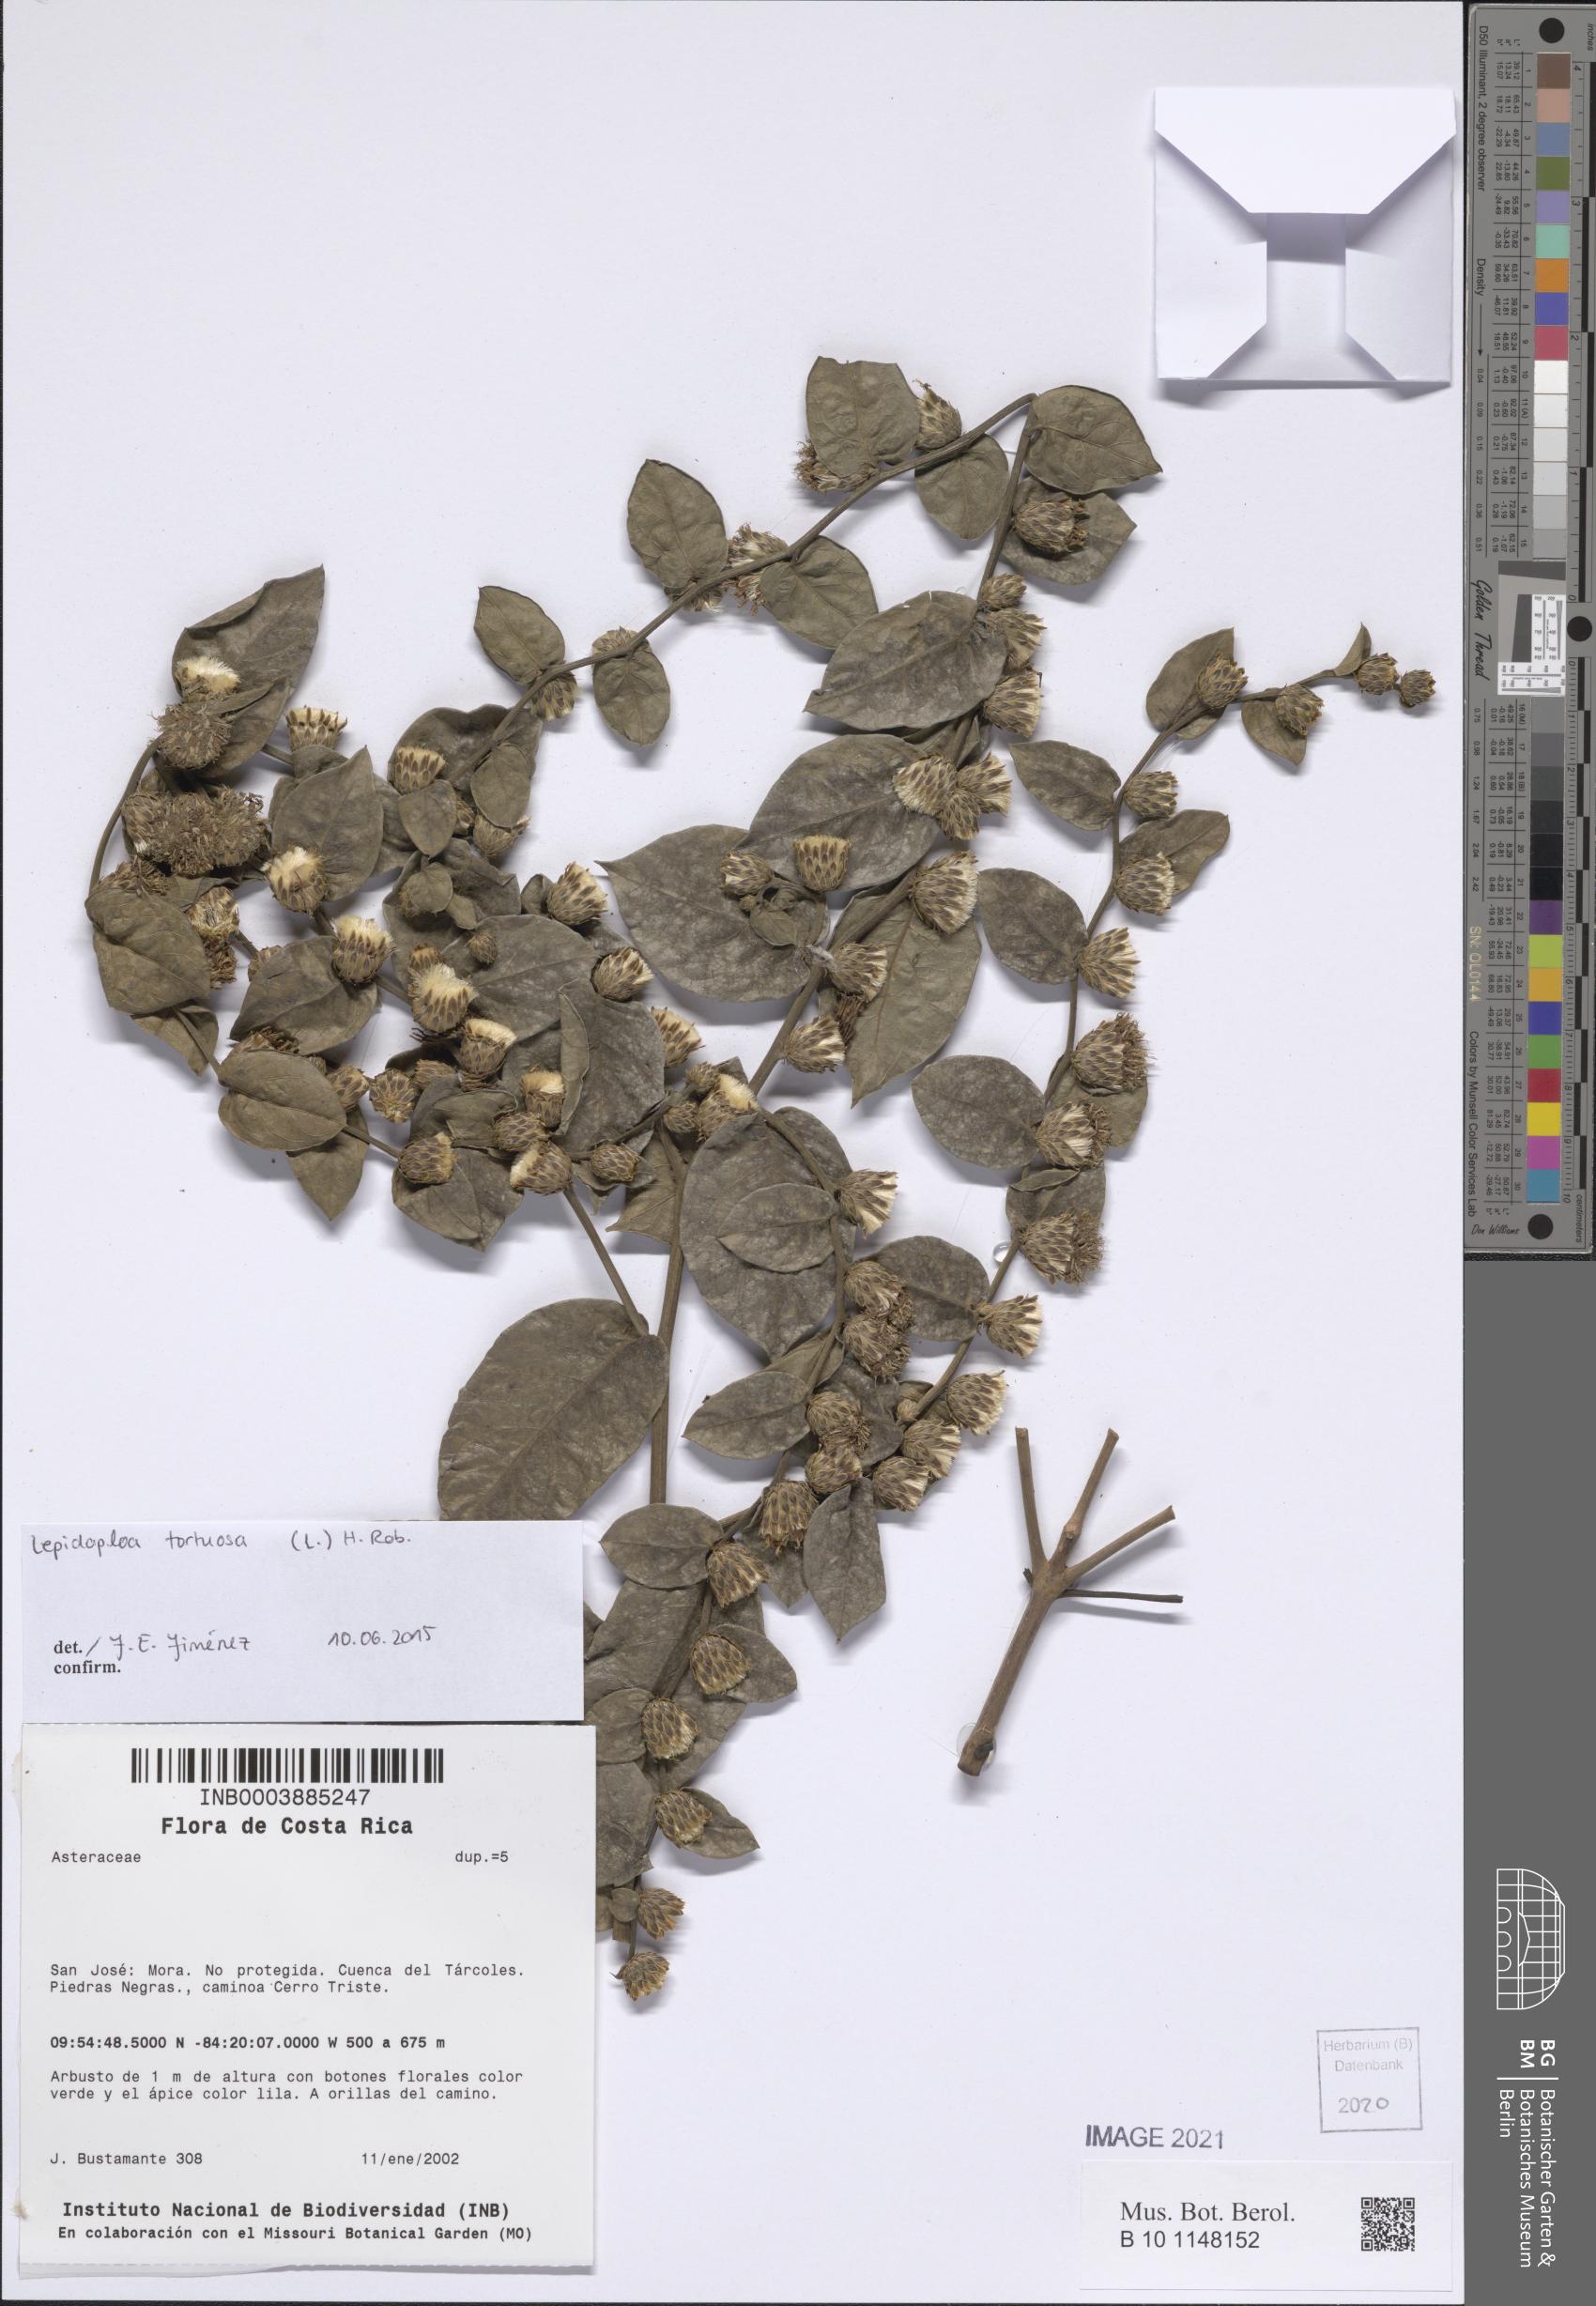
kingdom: Plantae
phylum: Tracheophyta
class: Magnoliopsida
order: Asterales
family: Asteraceae
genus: Lepidaploa
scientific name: Lepidaploa tortuosa
